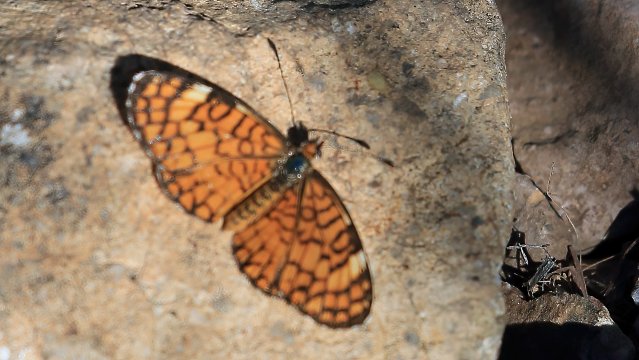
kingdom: Animalia
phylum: Arthropoda
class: Insecta
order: Lepidoptera
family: Nymphalidae
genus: Dymasia
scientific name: Dymasia dymas
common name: Tiny Checkerspot
